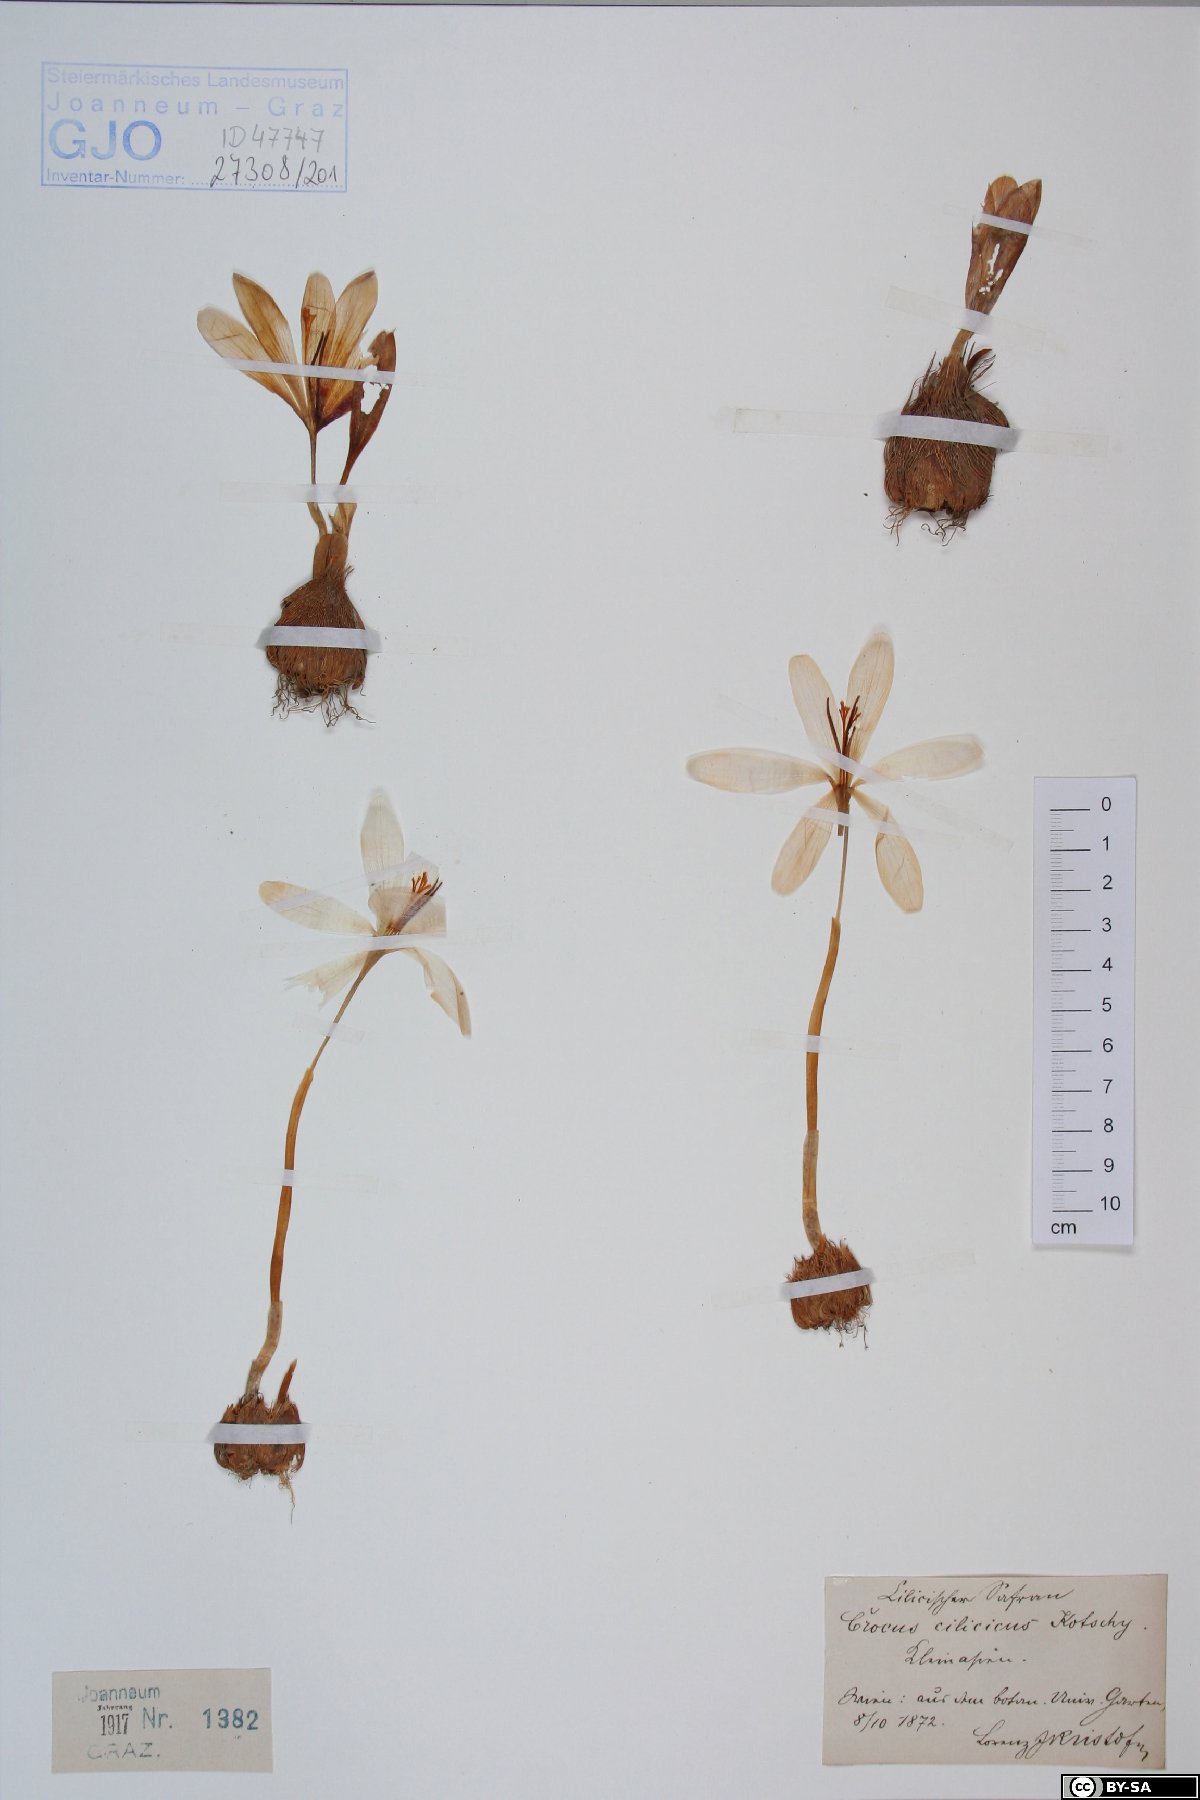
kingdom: Plantae
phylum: Tracheophyta
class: Liliopsida
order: Asparagales
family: Iridaceae
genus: Crocus
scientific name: Crocus cancellatus
